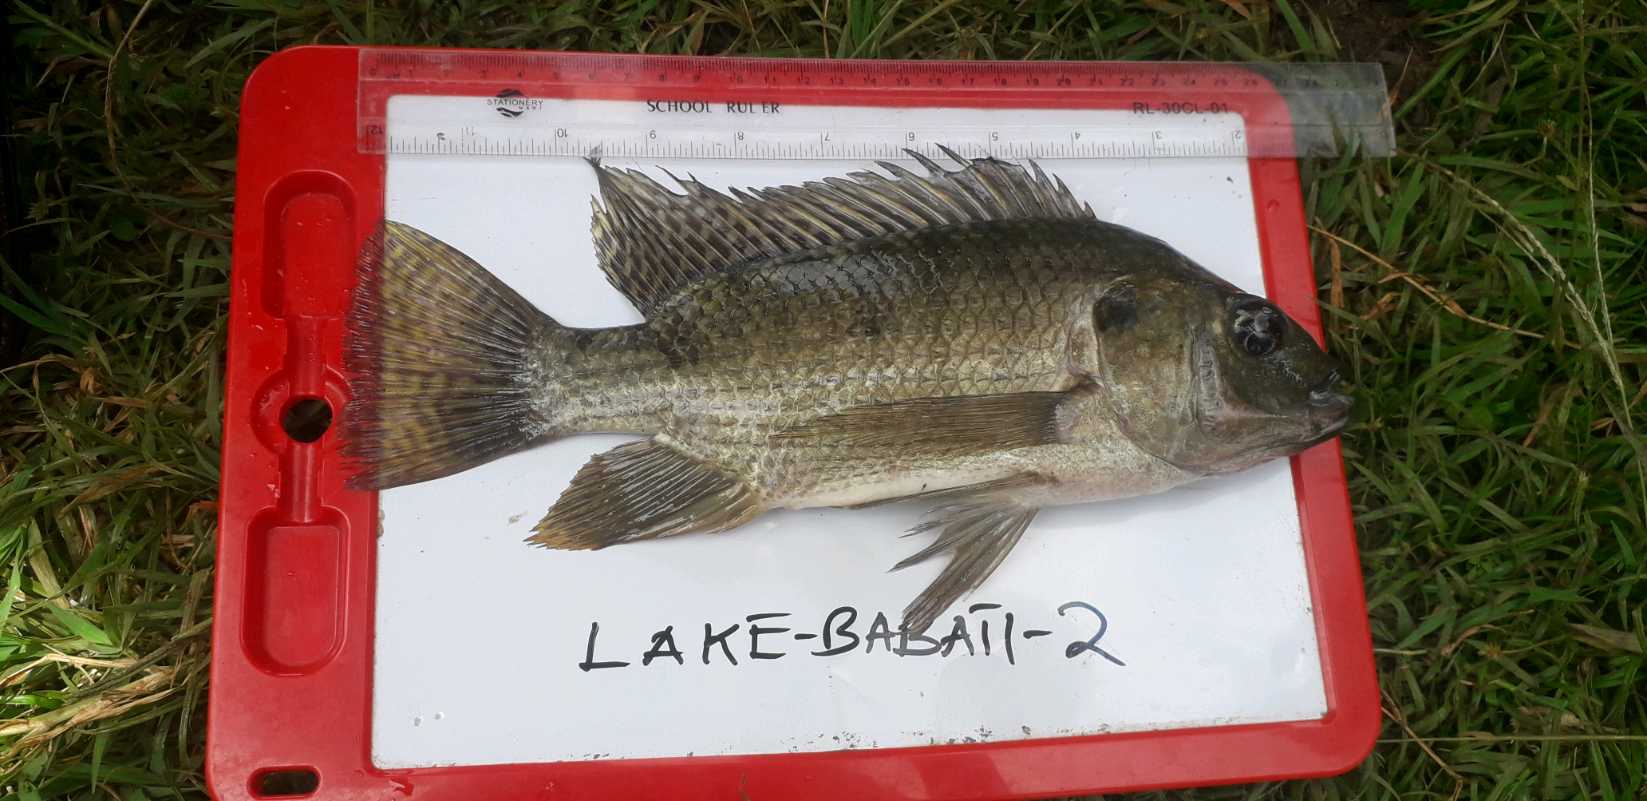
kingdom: Animalia
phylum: Chordata
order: Perciformes
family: Cichlidae
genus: Oreochromis
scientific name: Oreochromis
